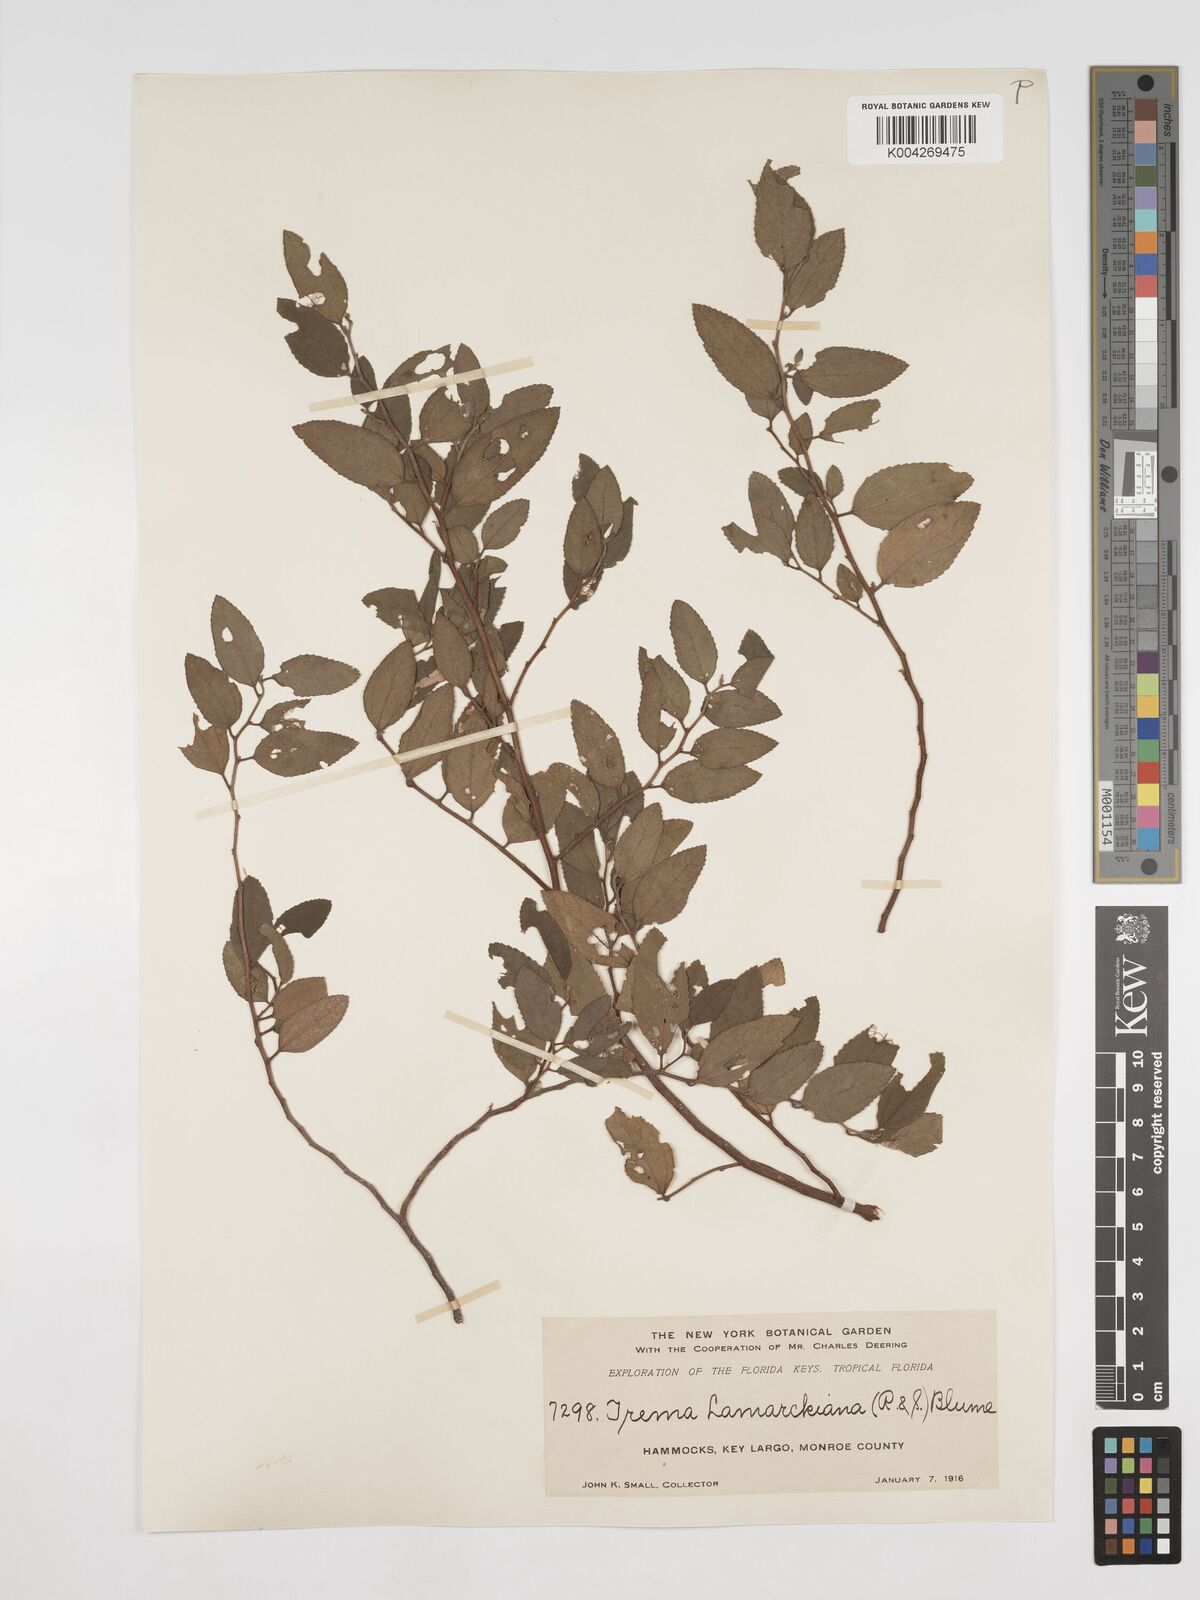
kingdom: Plantae
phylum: Tracheophyta
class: Magnoliopsida
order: Rosales
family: Cannabaceae
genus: Trema
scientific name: Trema lamarckianum
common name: Lamarck's trema
